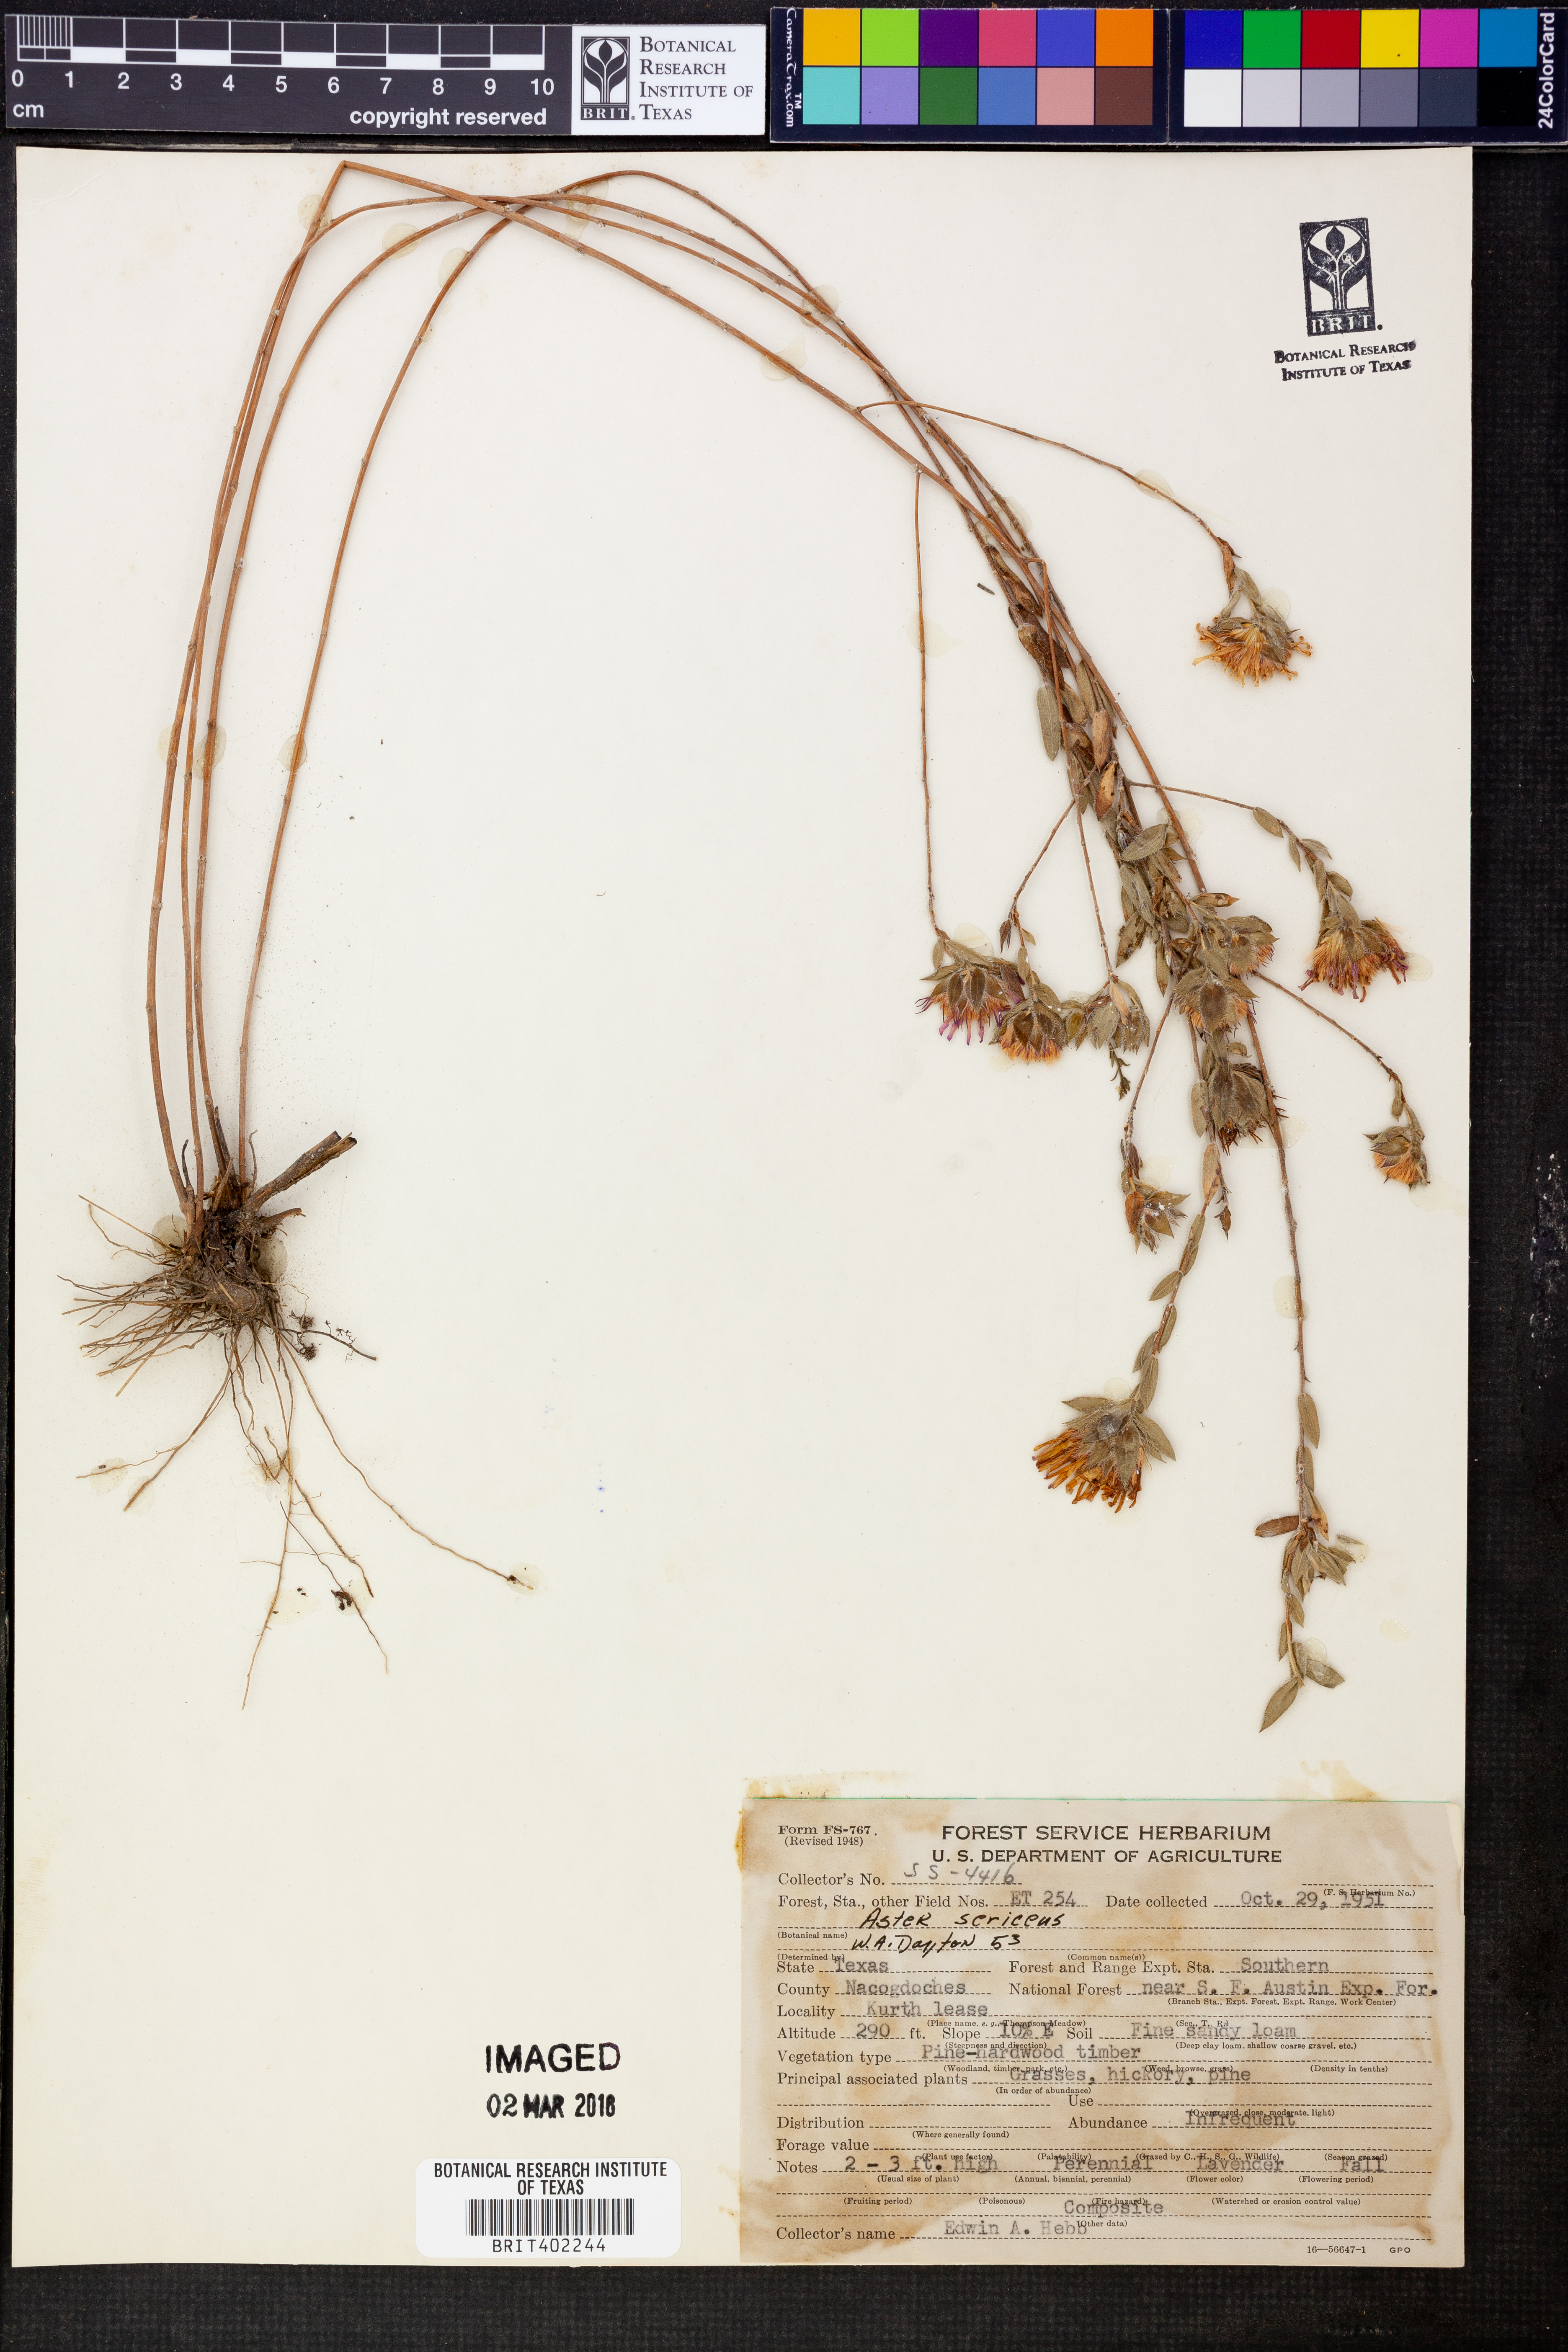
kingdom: Plantae
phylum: Tracheophyta
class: Magnoliopsida
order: Asterales
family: Asteraceae
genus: Symphyotrichum
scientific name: Symphyotrichum sericeum
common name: Silky aster
